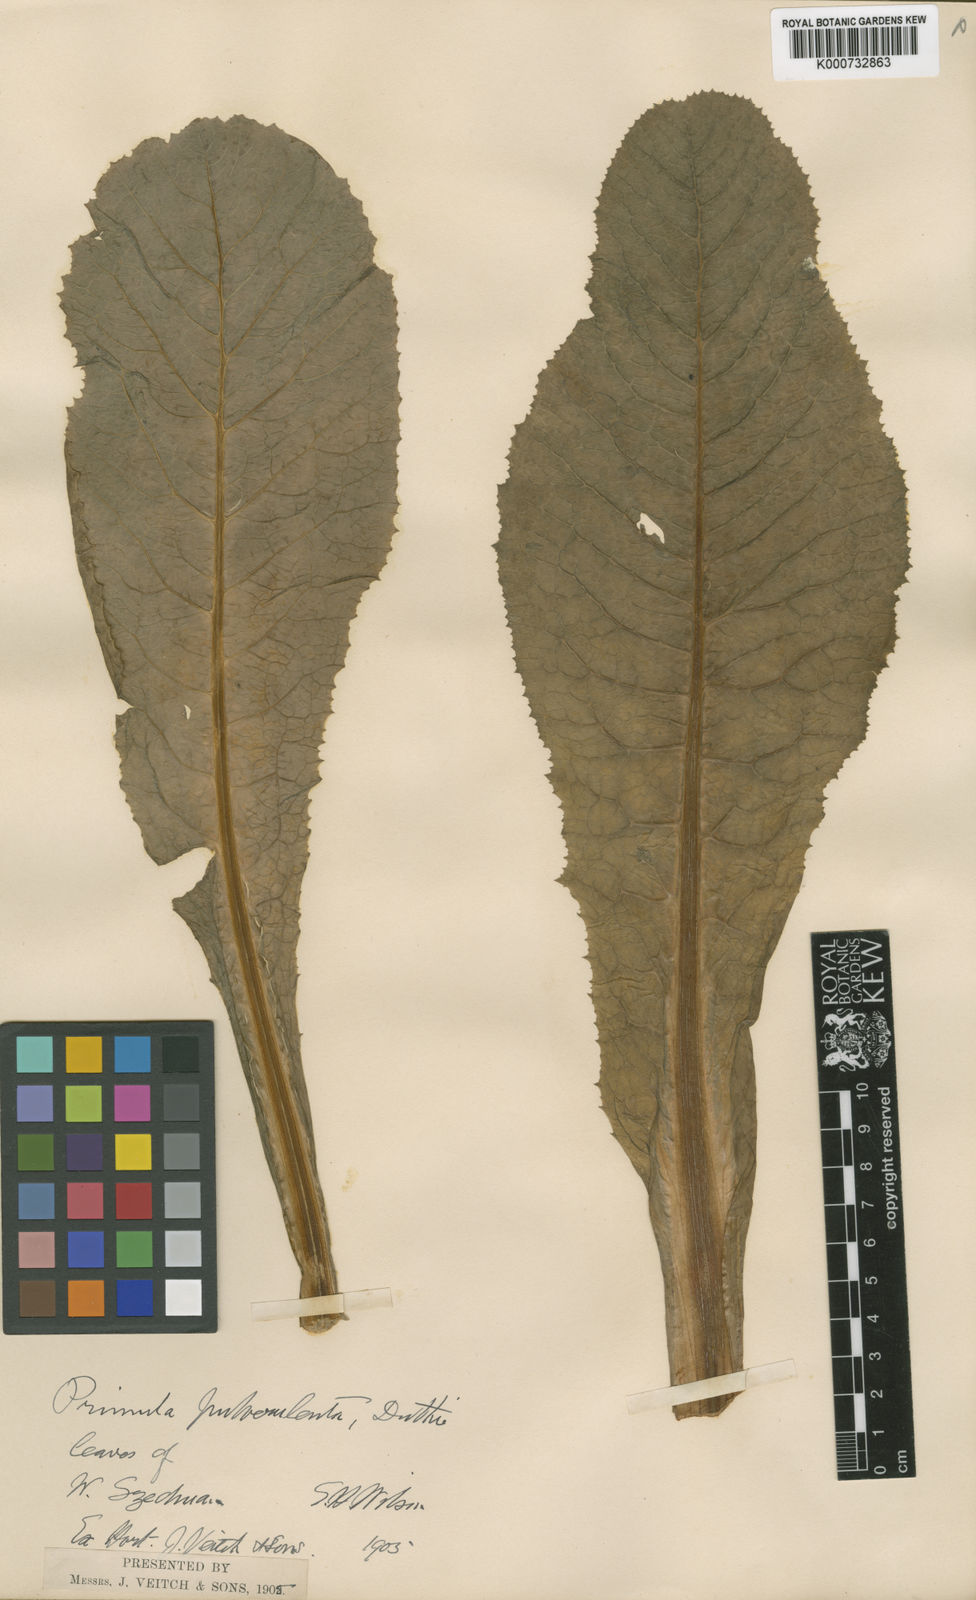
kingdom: Plantae
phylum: Tracheophyta
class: Magnoliopsida
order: Ericales
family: Primulaceae
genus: Primula
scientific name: Primula pulverulenta
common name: Mealy cowslip
